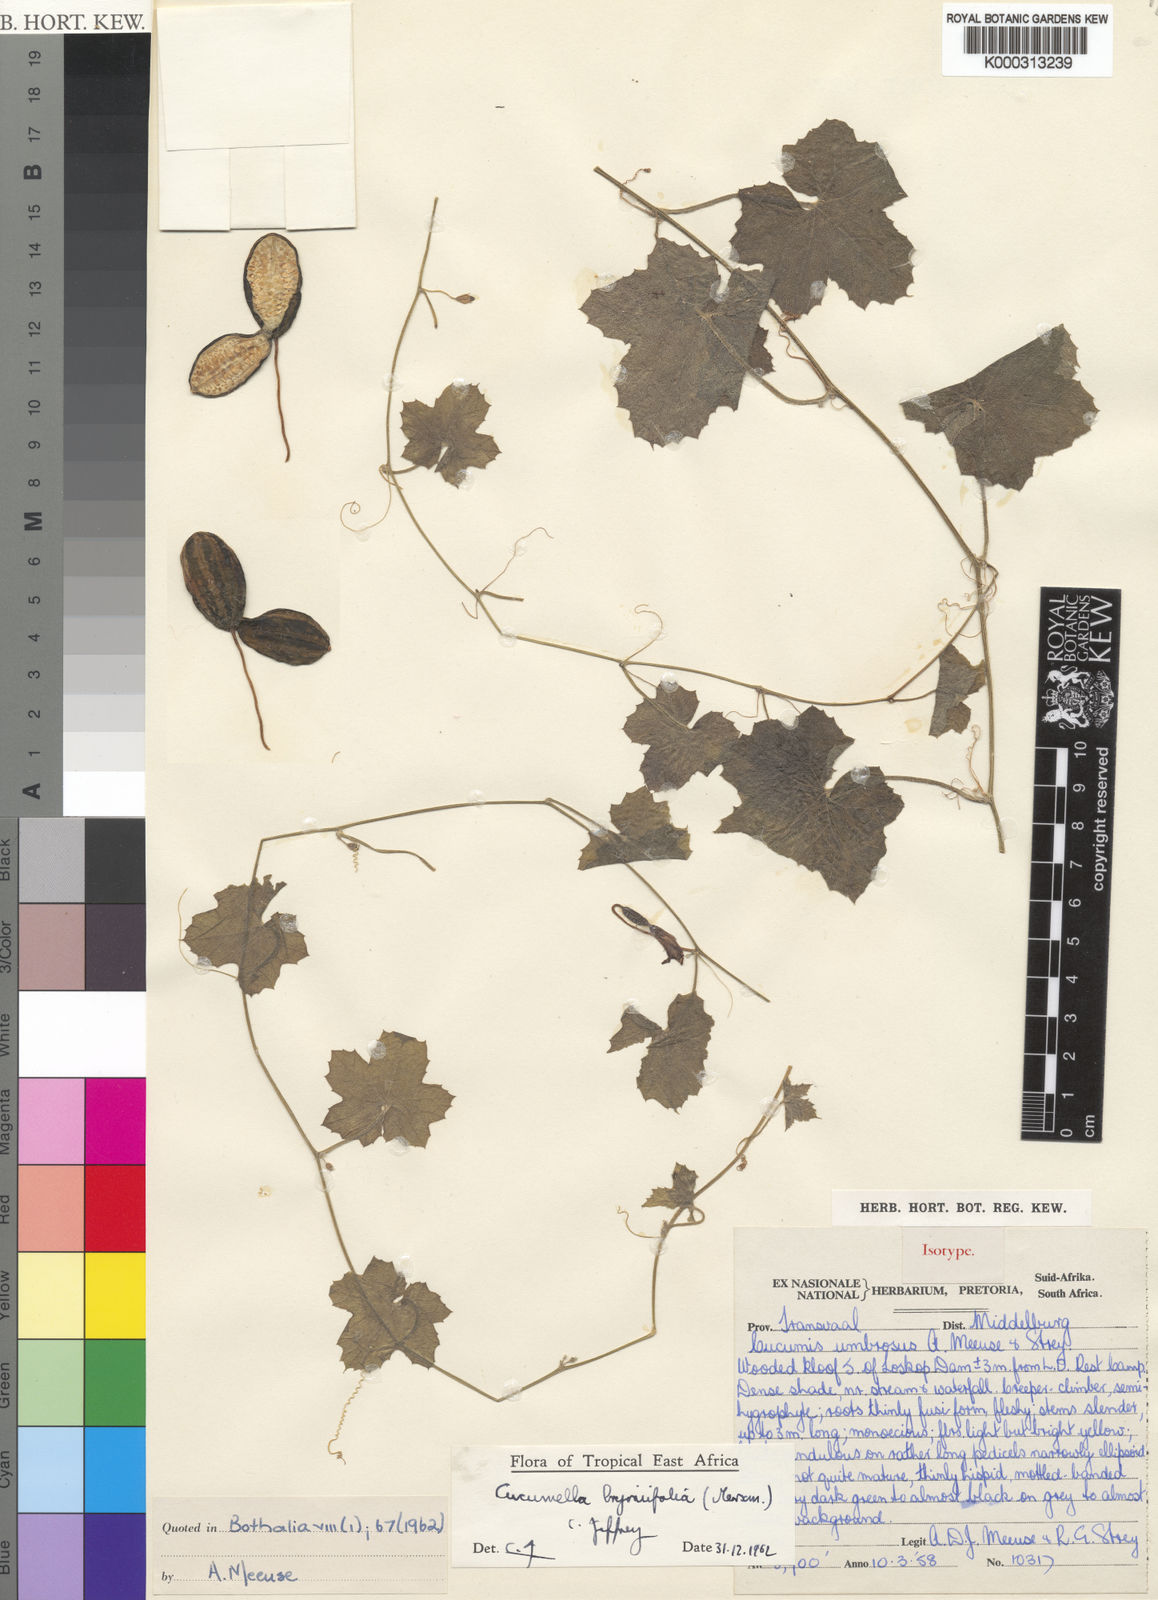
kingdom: Plantae
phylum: Tracheophyta
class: Magnoliopsida
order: Cucurbitales
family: Cucurbitaceae
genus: Cucumis
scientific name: Cucumis bryoniifolius
